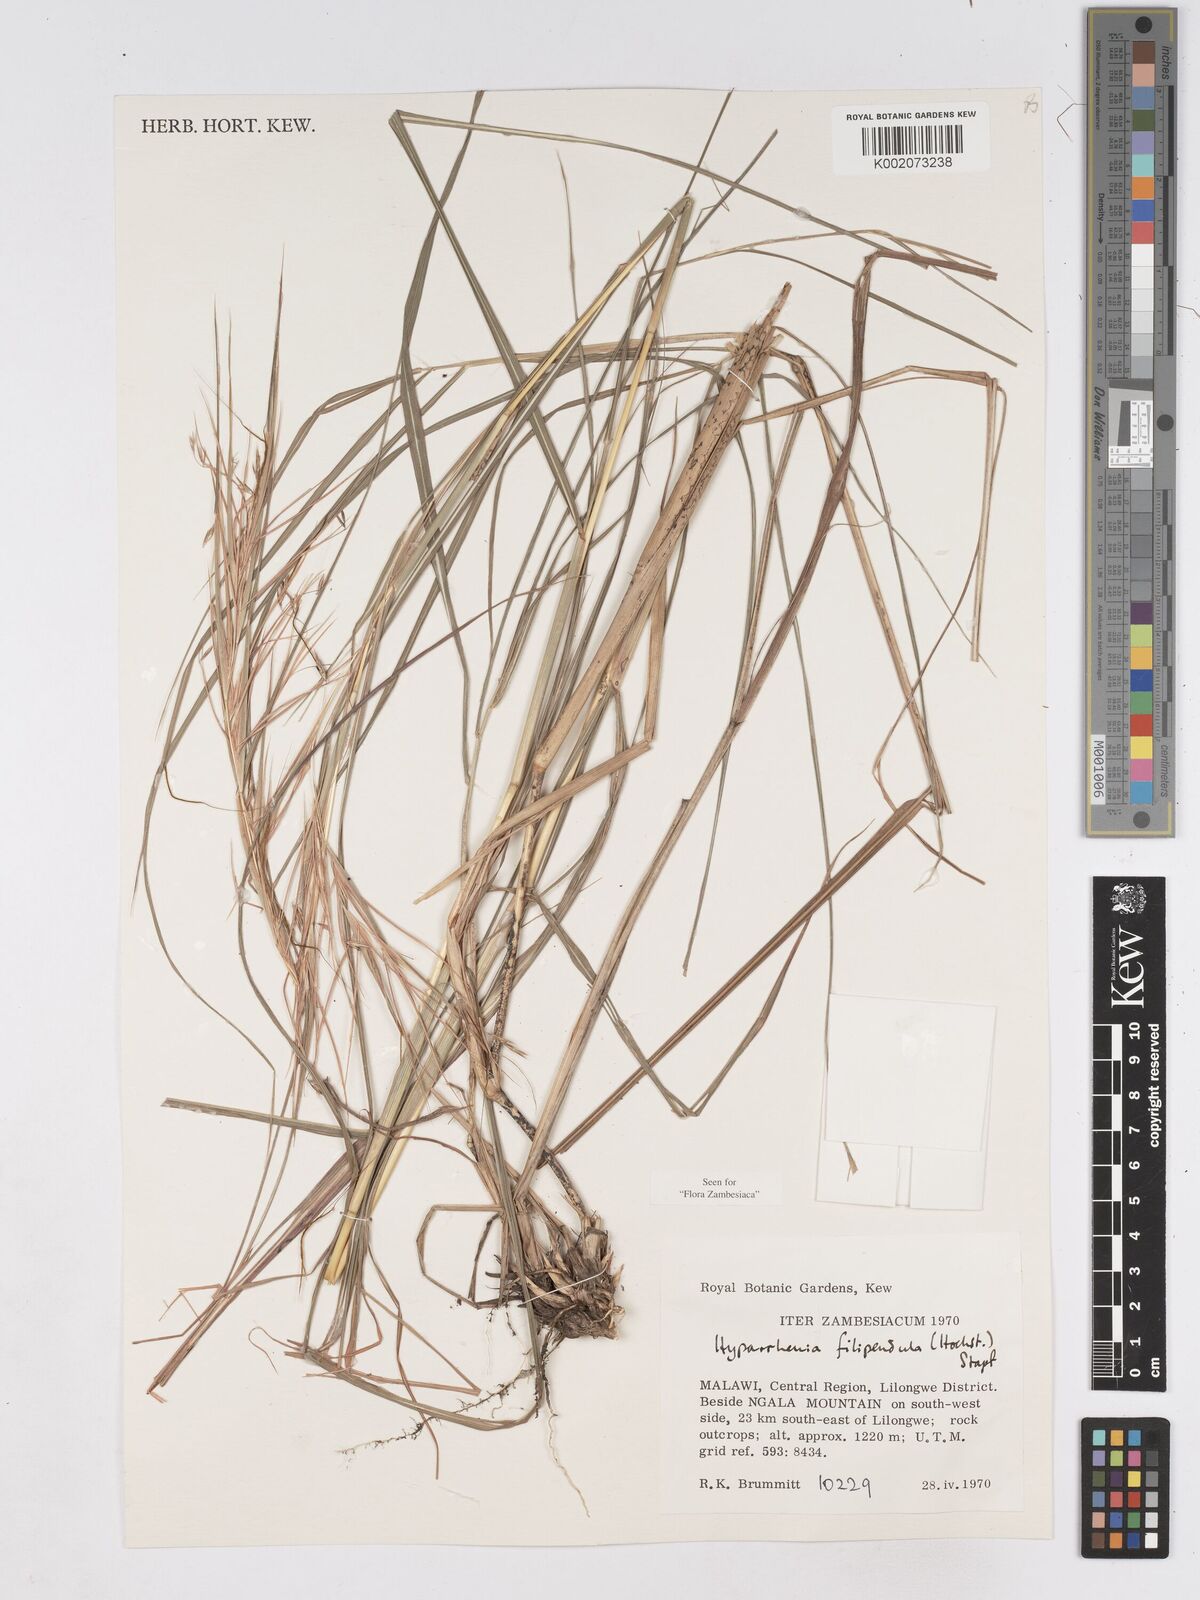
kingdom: Plantae
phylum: Tracheophyta
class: Liliopsida
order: Poales
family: Poaceae
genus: Hyparrhenia
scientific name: Hyparrhenia filipendula
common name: Tambookie grass
